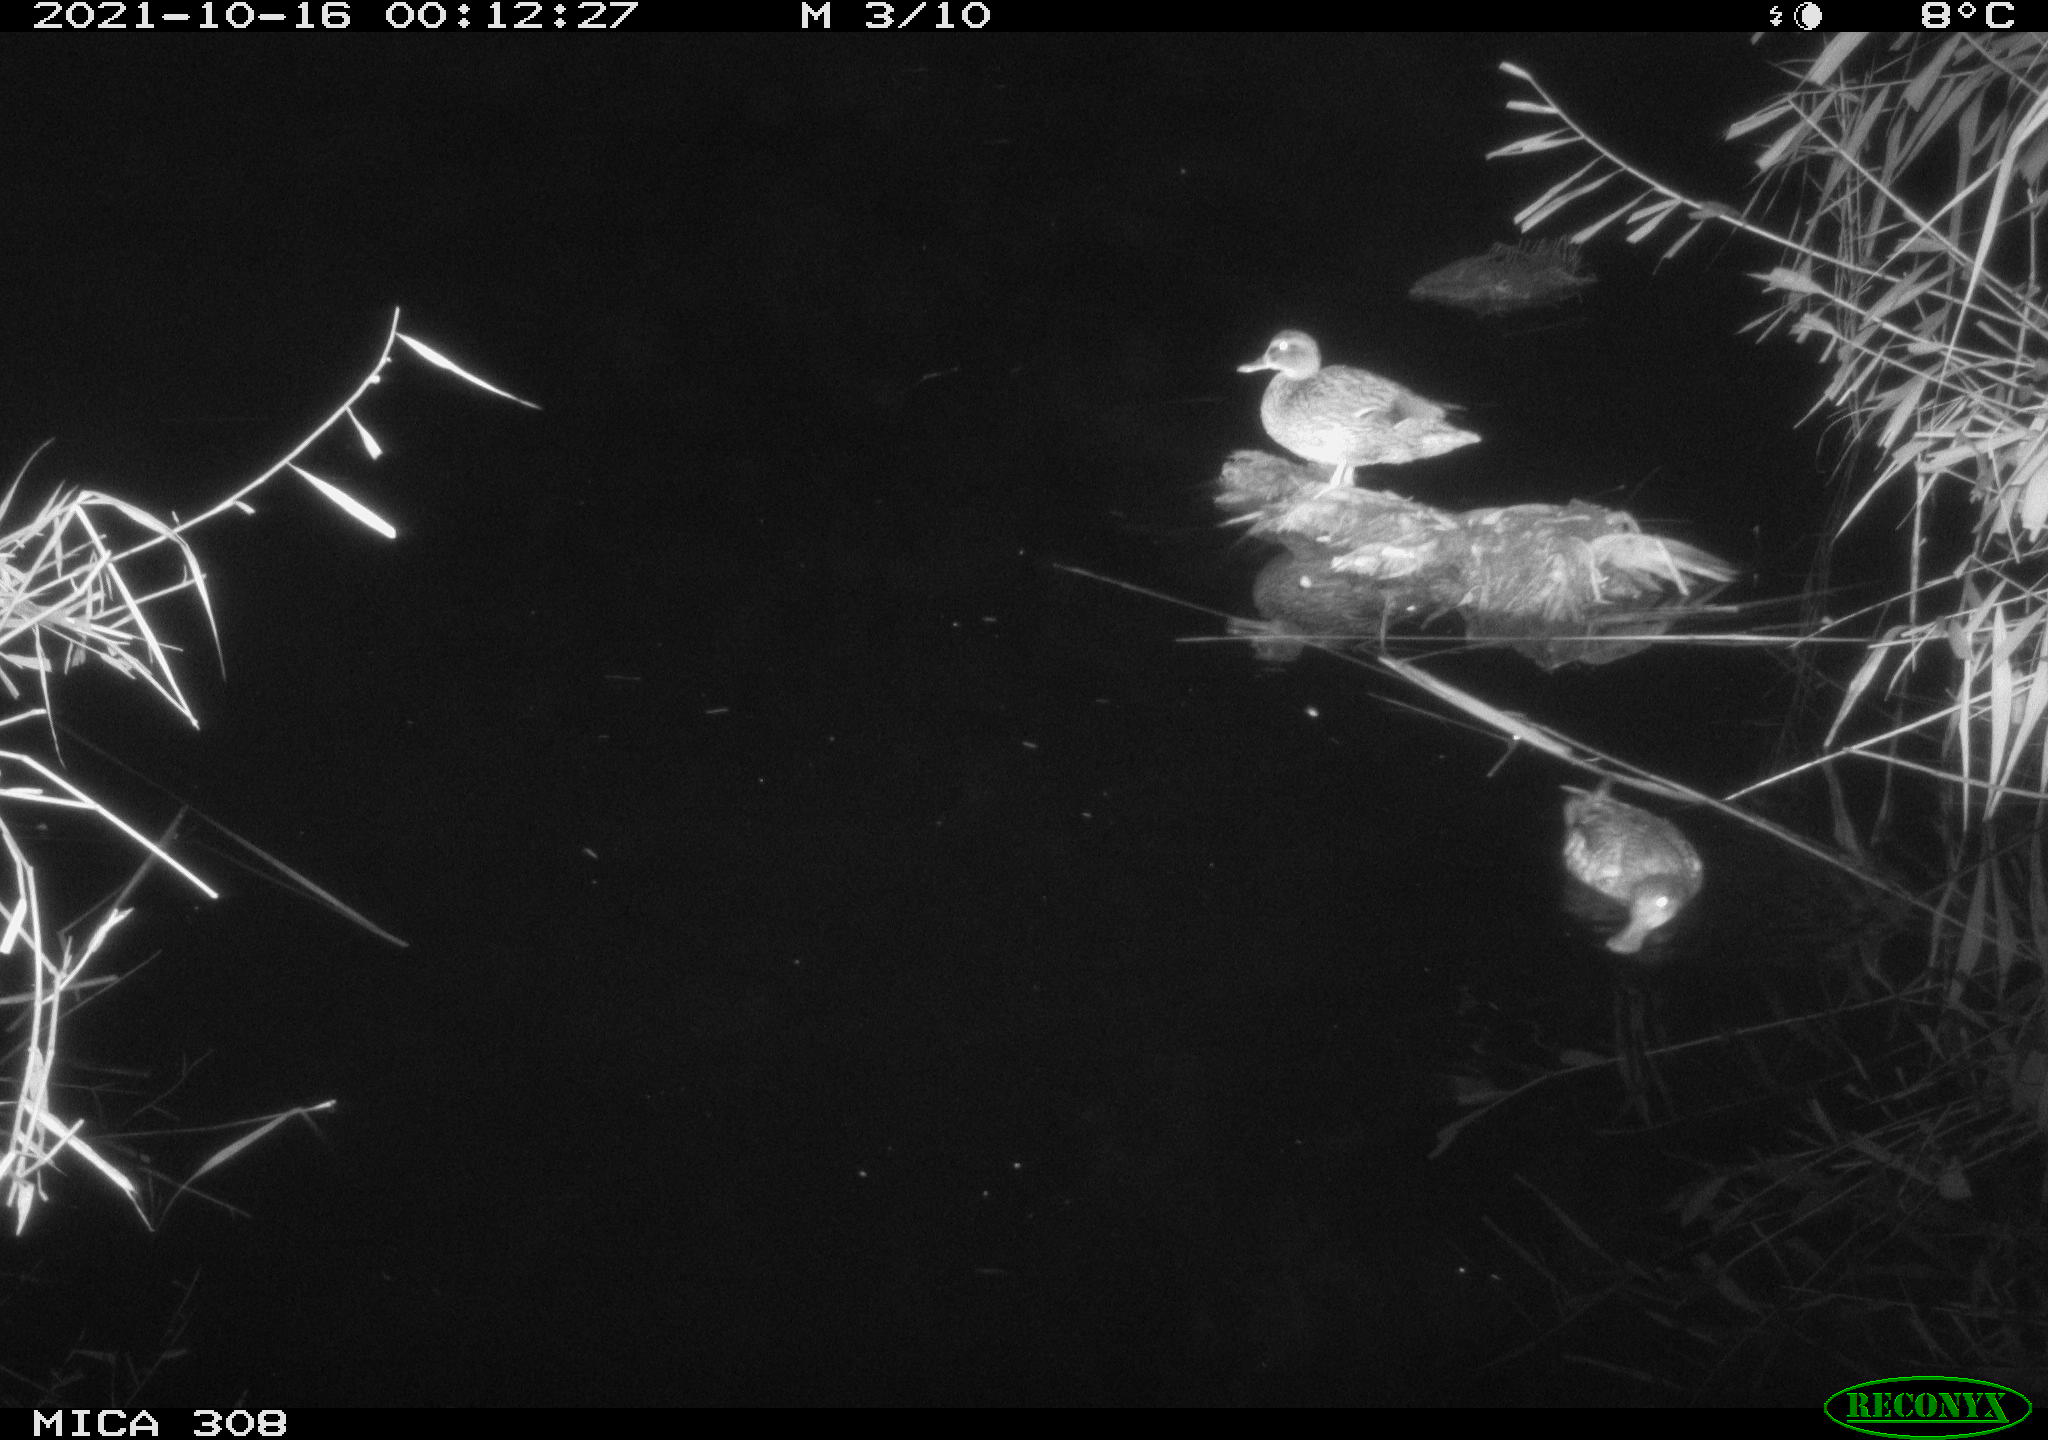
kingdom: Animalia
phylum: Chordata
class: Aves
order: Anseriformes
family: Anatidae
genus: Anas
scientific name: Anas platyrhynchos
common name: Mallard
